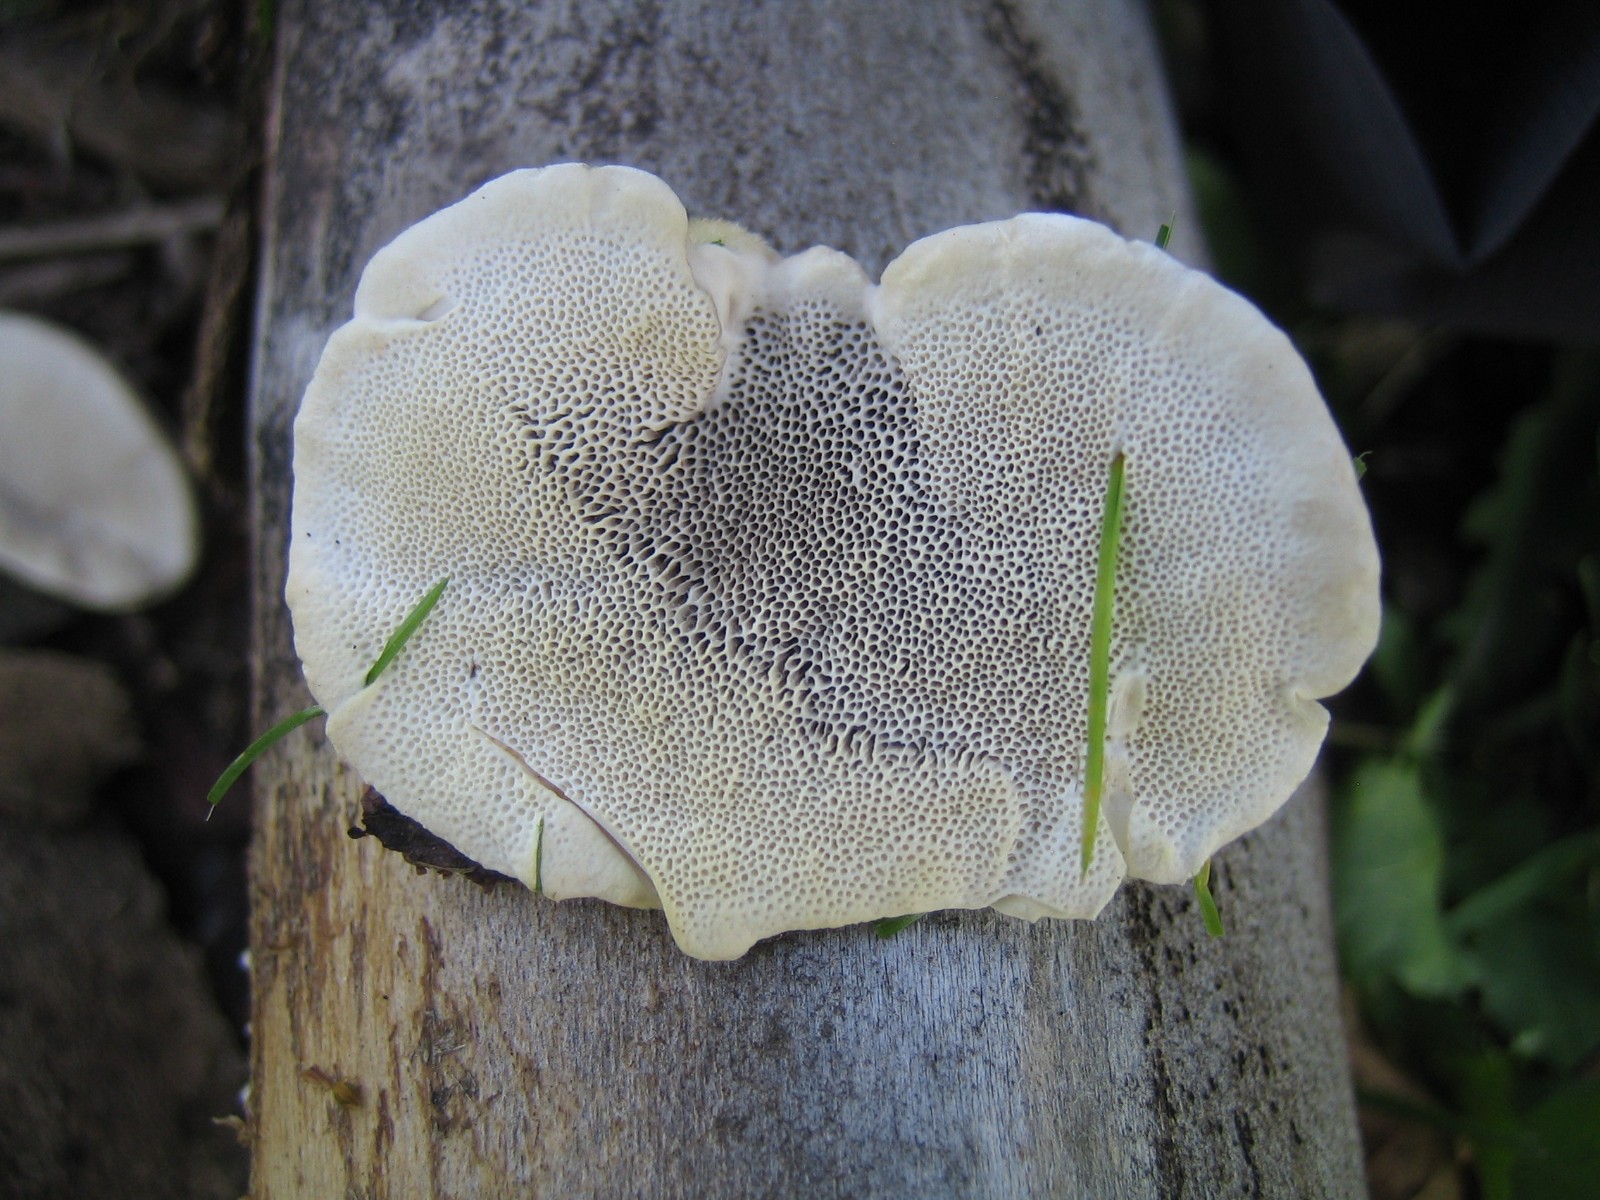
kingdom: Fungi
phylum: Basidiomycota
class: Agaricomycetes
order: Polyporales
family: Polyporaceae
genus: Trametes
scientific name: Trametes hirsuta
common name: håret læderporesvamp
